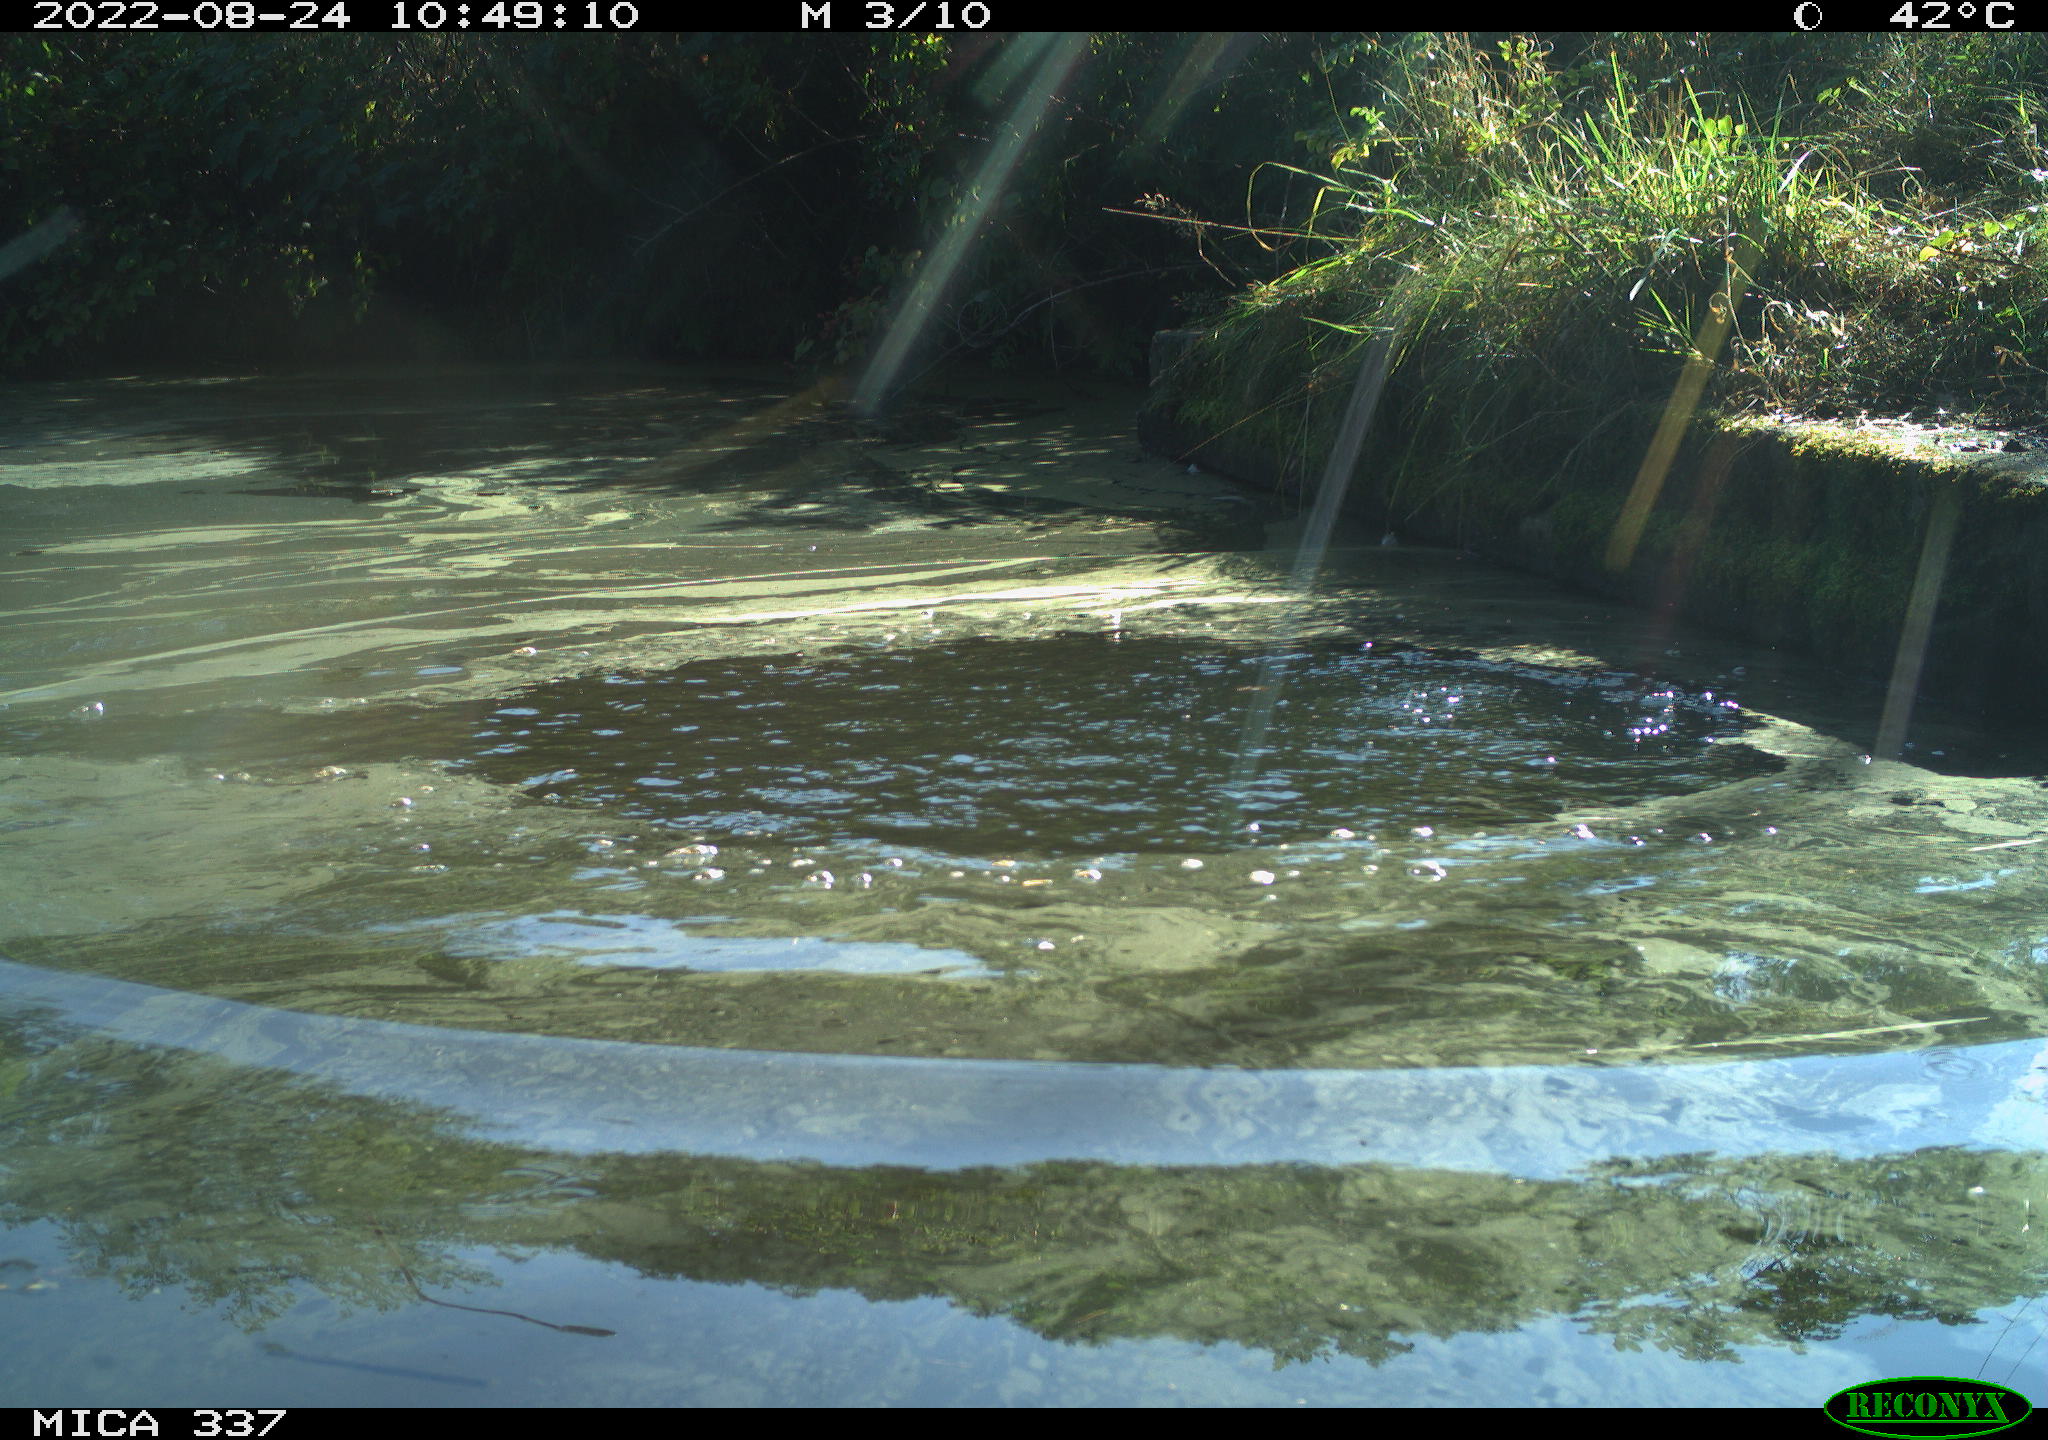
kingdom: Animalia
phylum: Chordata
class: Aves
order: Anseriformes
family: Anatidae
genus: Anas
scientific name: Anas platyrhynchos
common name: Mallard
